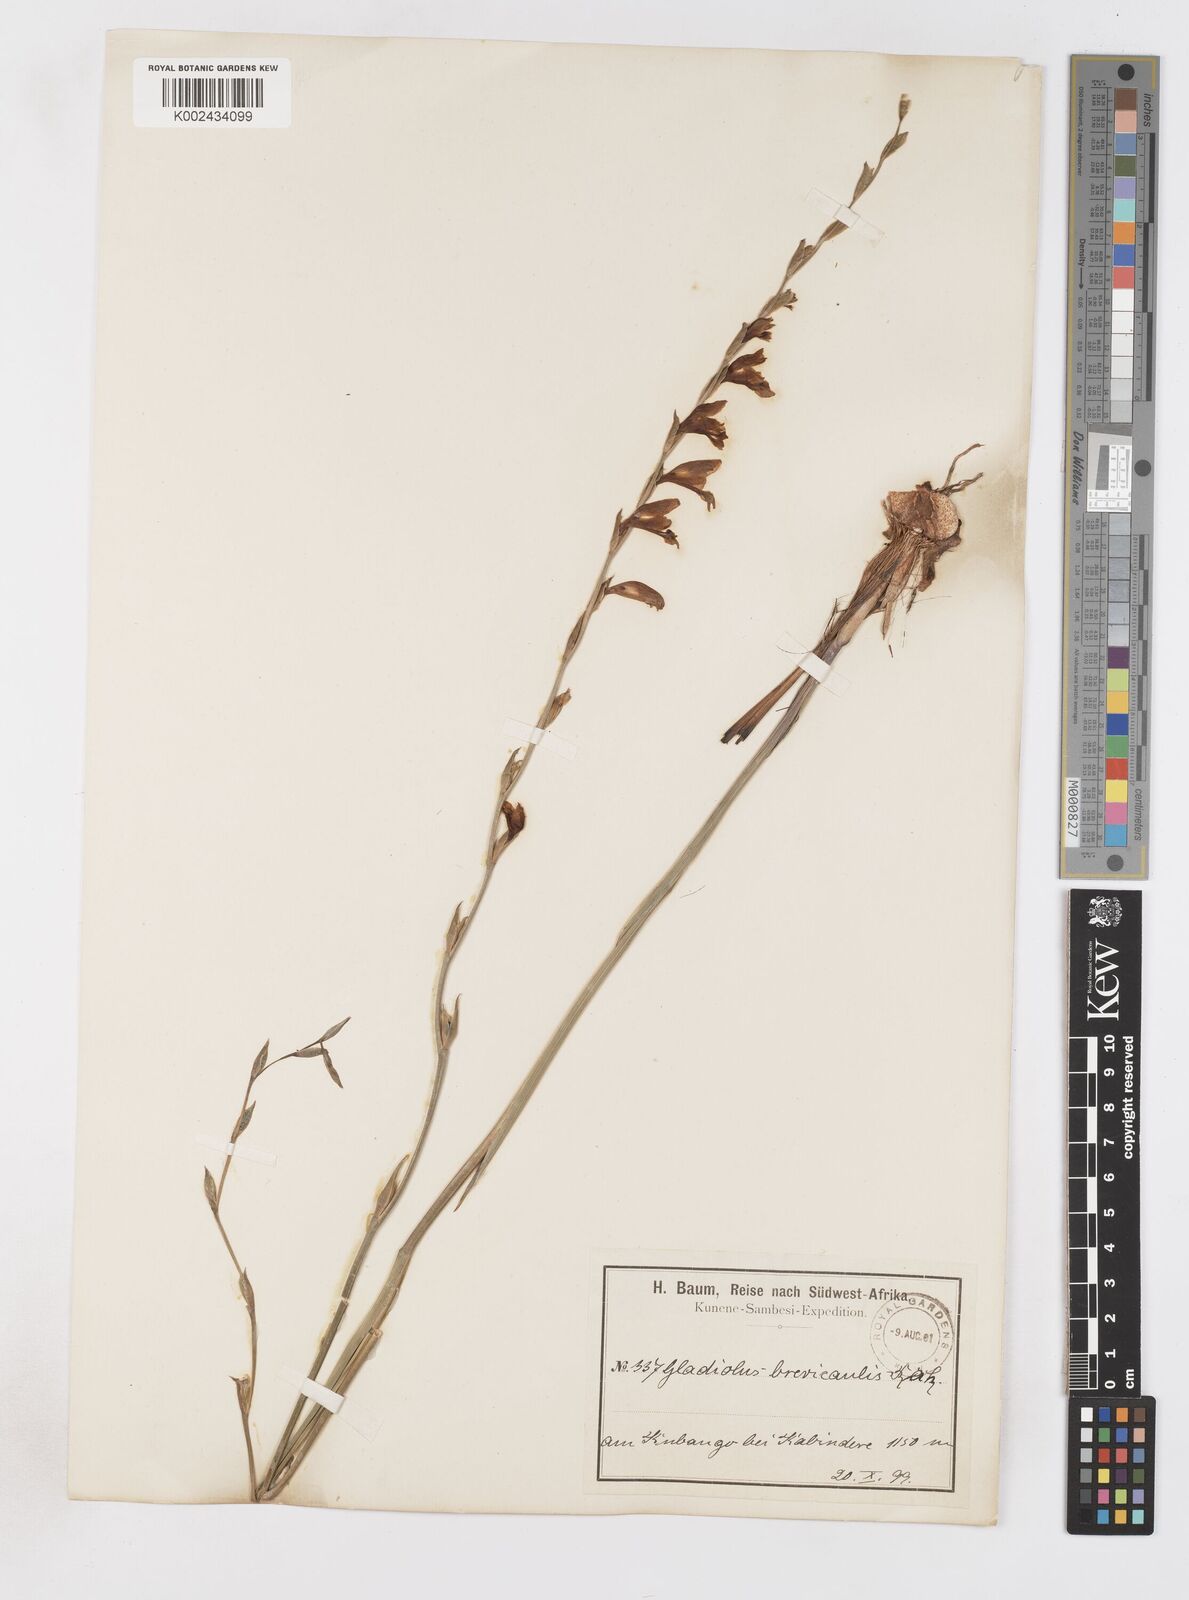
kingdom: Plantae
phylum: Tracheophyta
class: Liliopsida
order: Asparagales
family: Iridaceae
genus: Gladiolus
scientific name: Gladiolus atropurpureus
